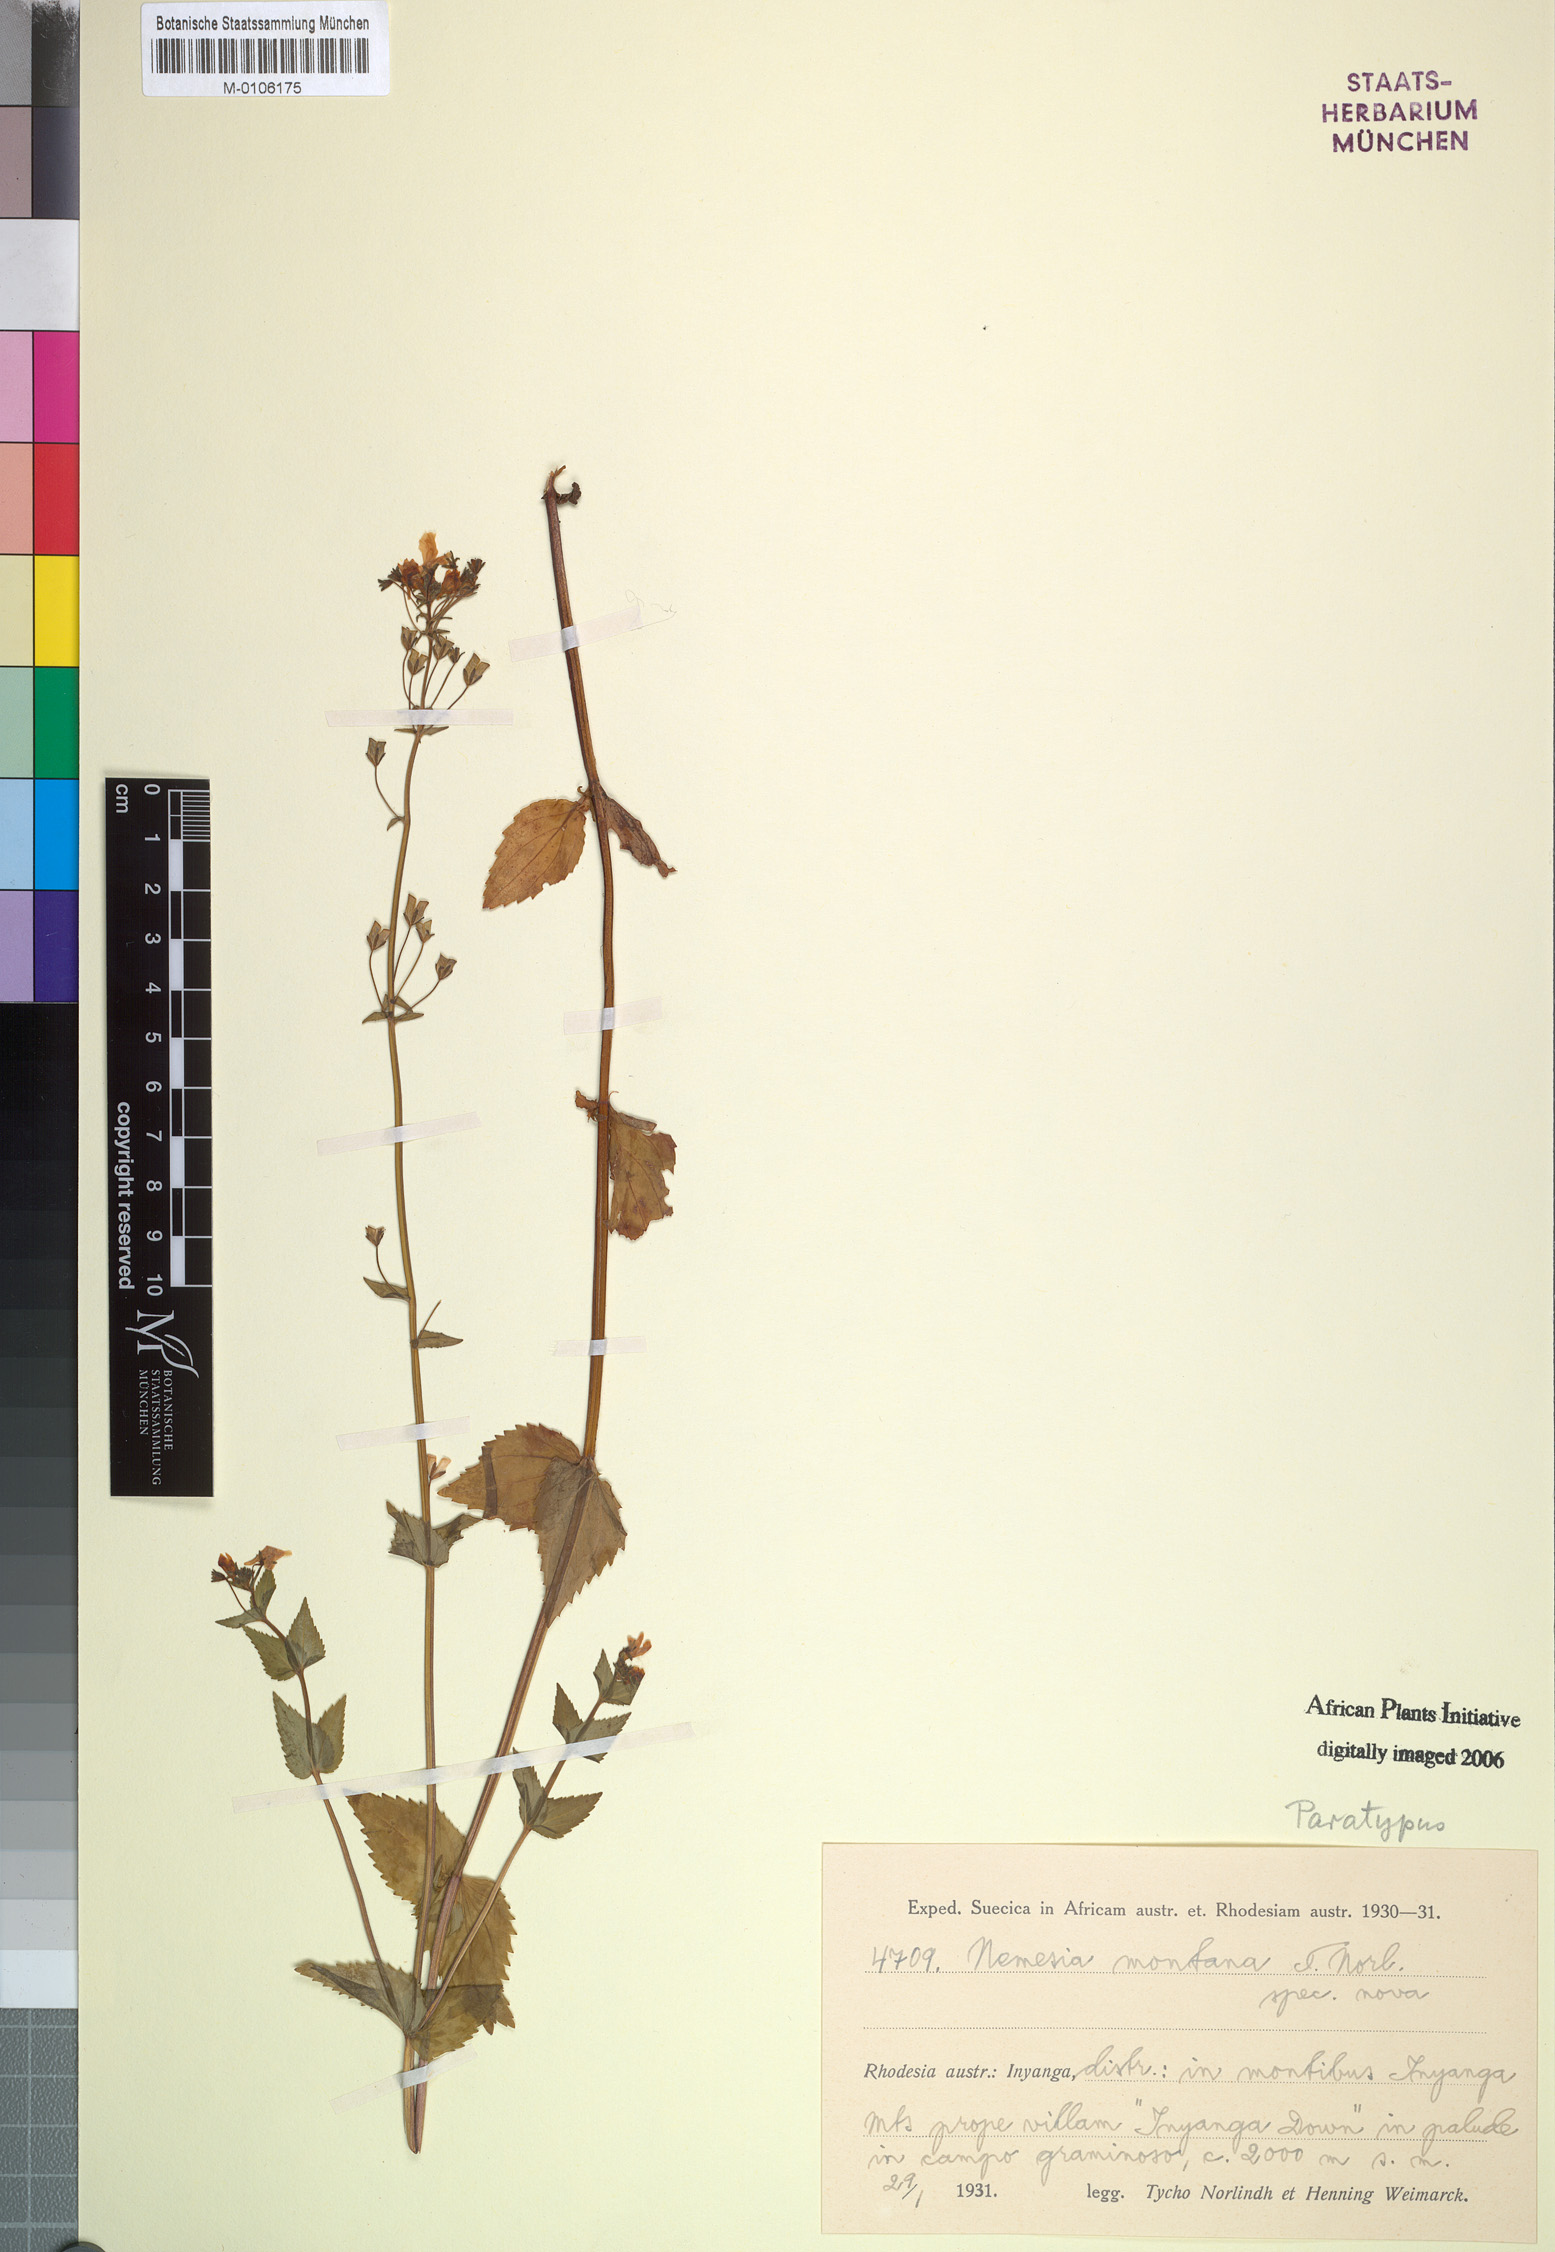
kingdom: Plantae
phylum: Tracheophyta
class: Magnoliopsida
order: Lamiales
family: Scrophulariaceae
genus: Nemesia
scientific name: Nemesia zimbabwensis
